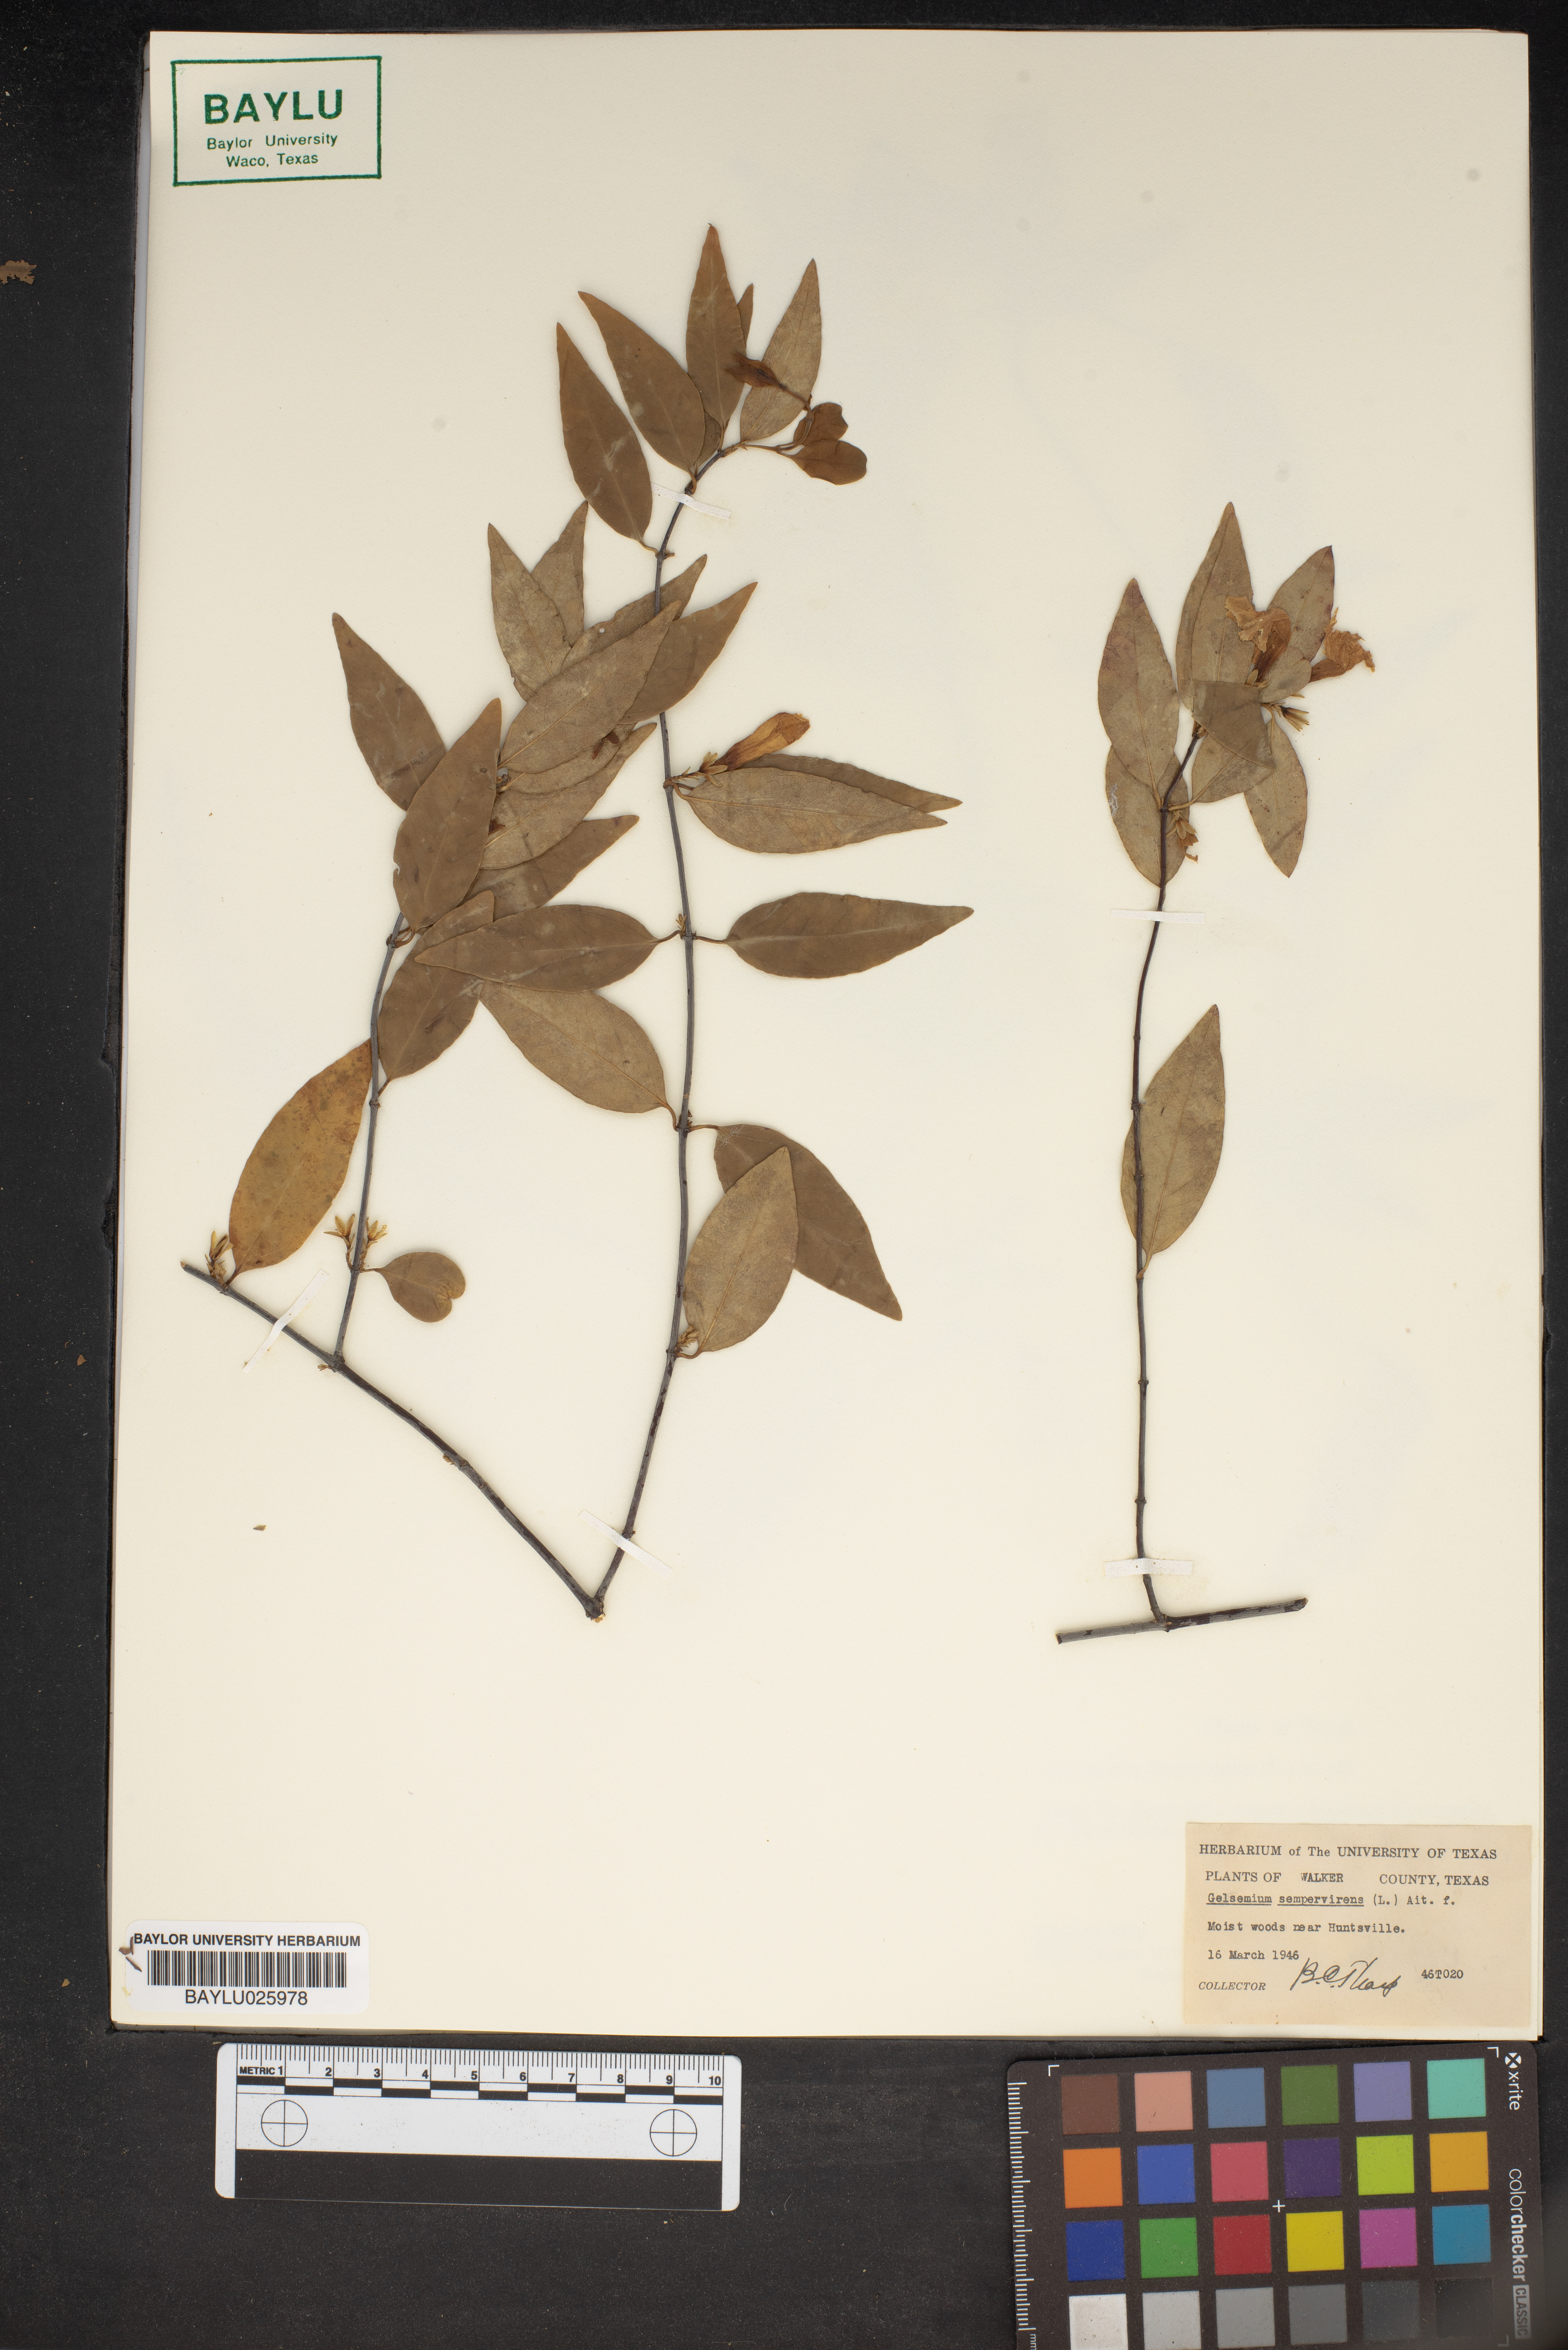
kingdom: Plantae
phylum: Tracheophyta
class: Magnoliopsida
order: Gentianales
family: Gelsemiaceae
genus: Gelsemium
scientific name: Gelsemium sempervirens
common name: Carolina-jasmine
